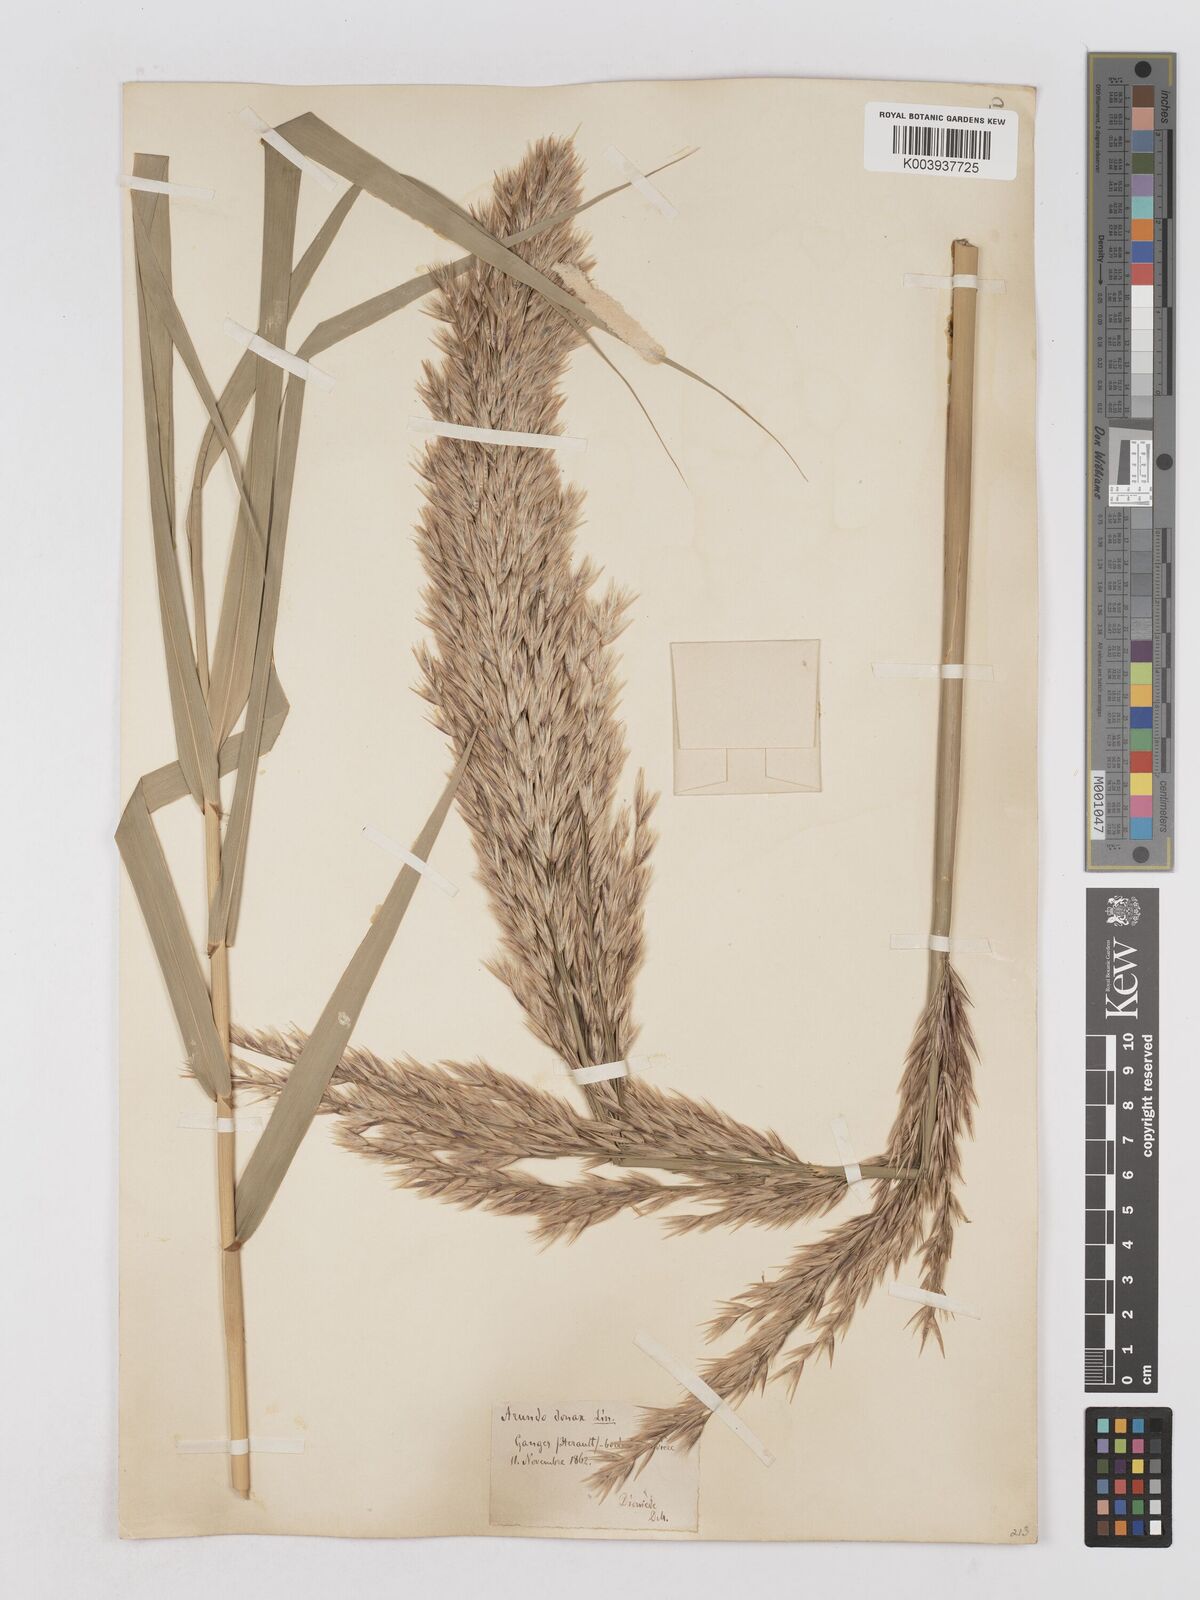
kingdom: Plantae
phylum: Tracheophyta
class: Liliopsida
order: Poales
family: Poaceae
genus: Arundo
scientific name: Arundo donax
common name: Giant reed
